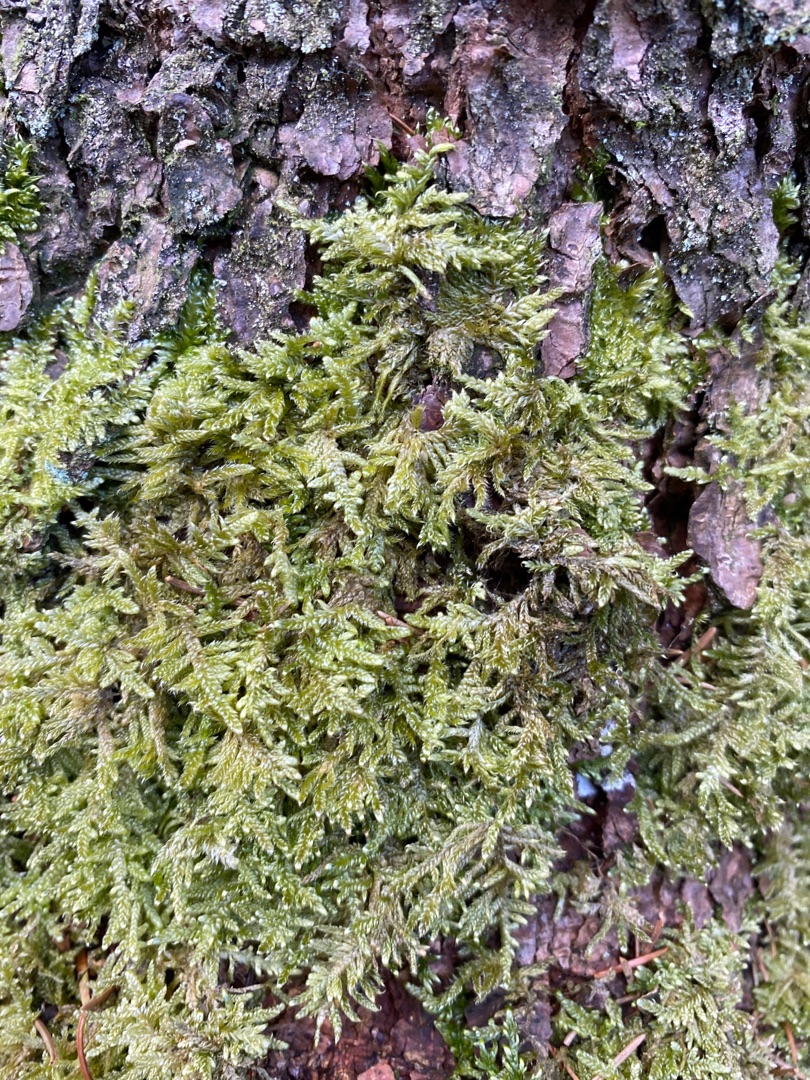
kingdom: Plantae
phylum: Bryophyta
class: Bryopsida
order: Hypnales
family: Hypnaceae
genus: Hypnum
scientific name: Hypnum cupressiforme
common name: Almindelig cypresmos
